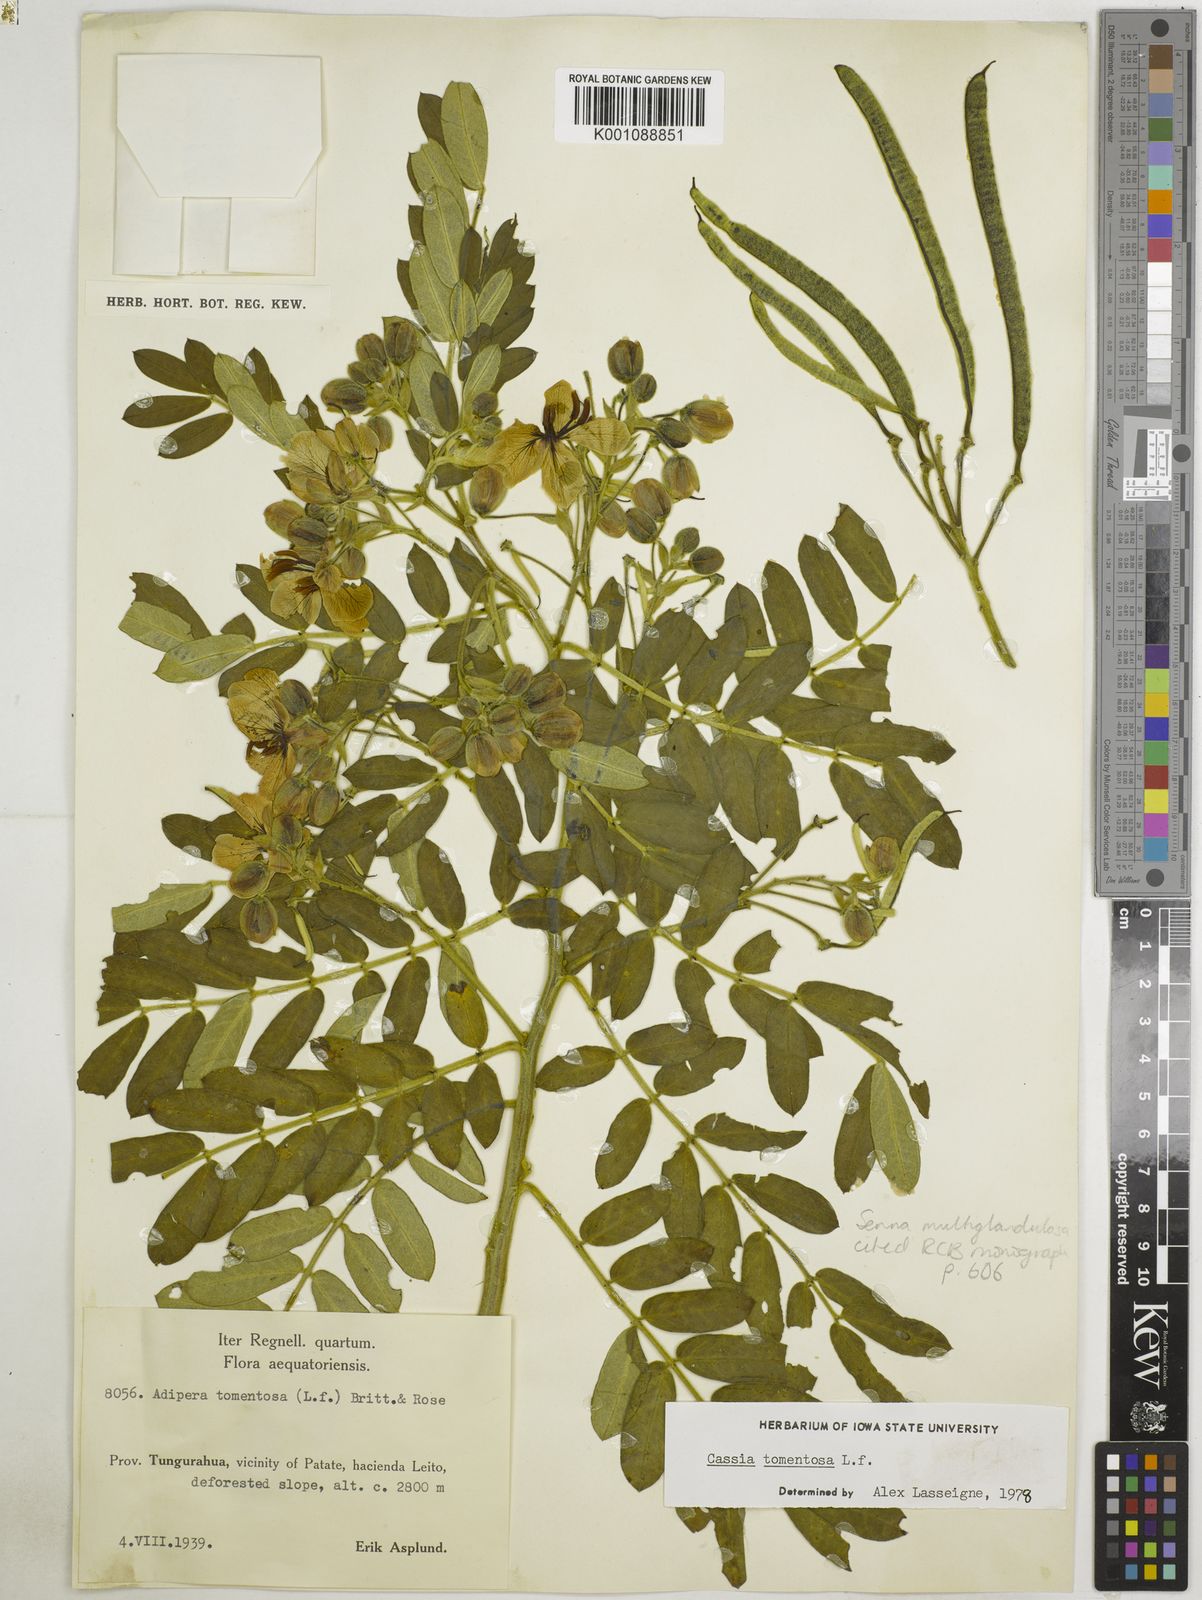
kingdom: Plantae
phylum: Tracheophyta
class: Magnoliopsida
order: Fabales
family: Fabaceae
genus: Senna
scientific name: Senna multiglandulosa
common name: Glandular senna
